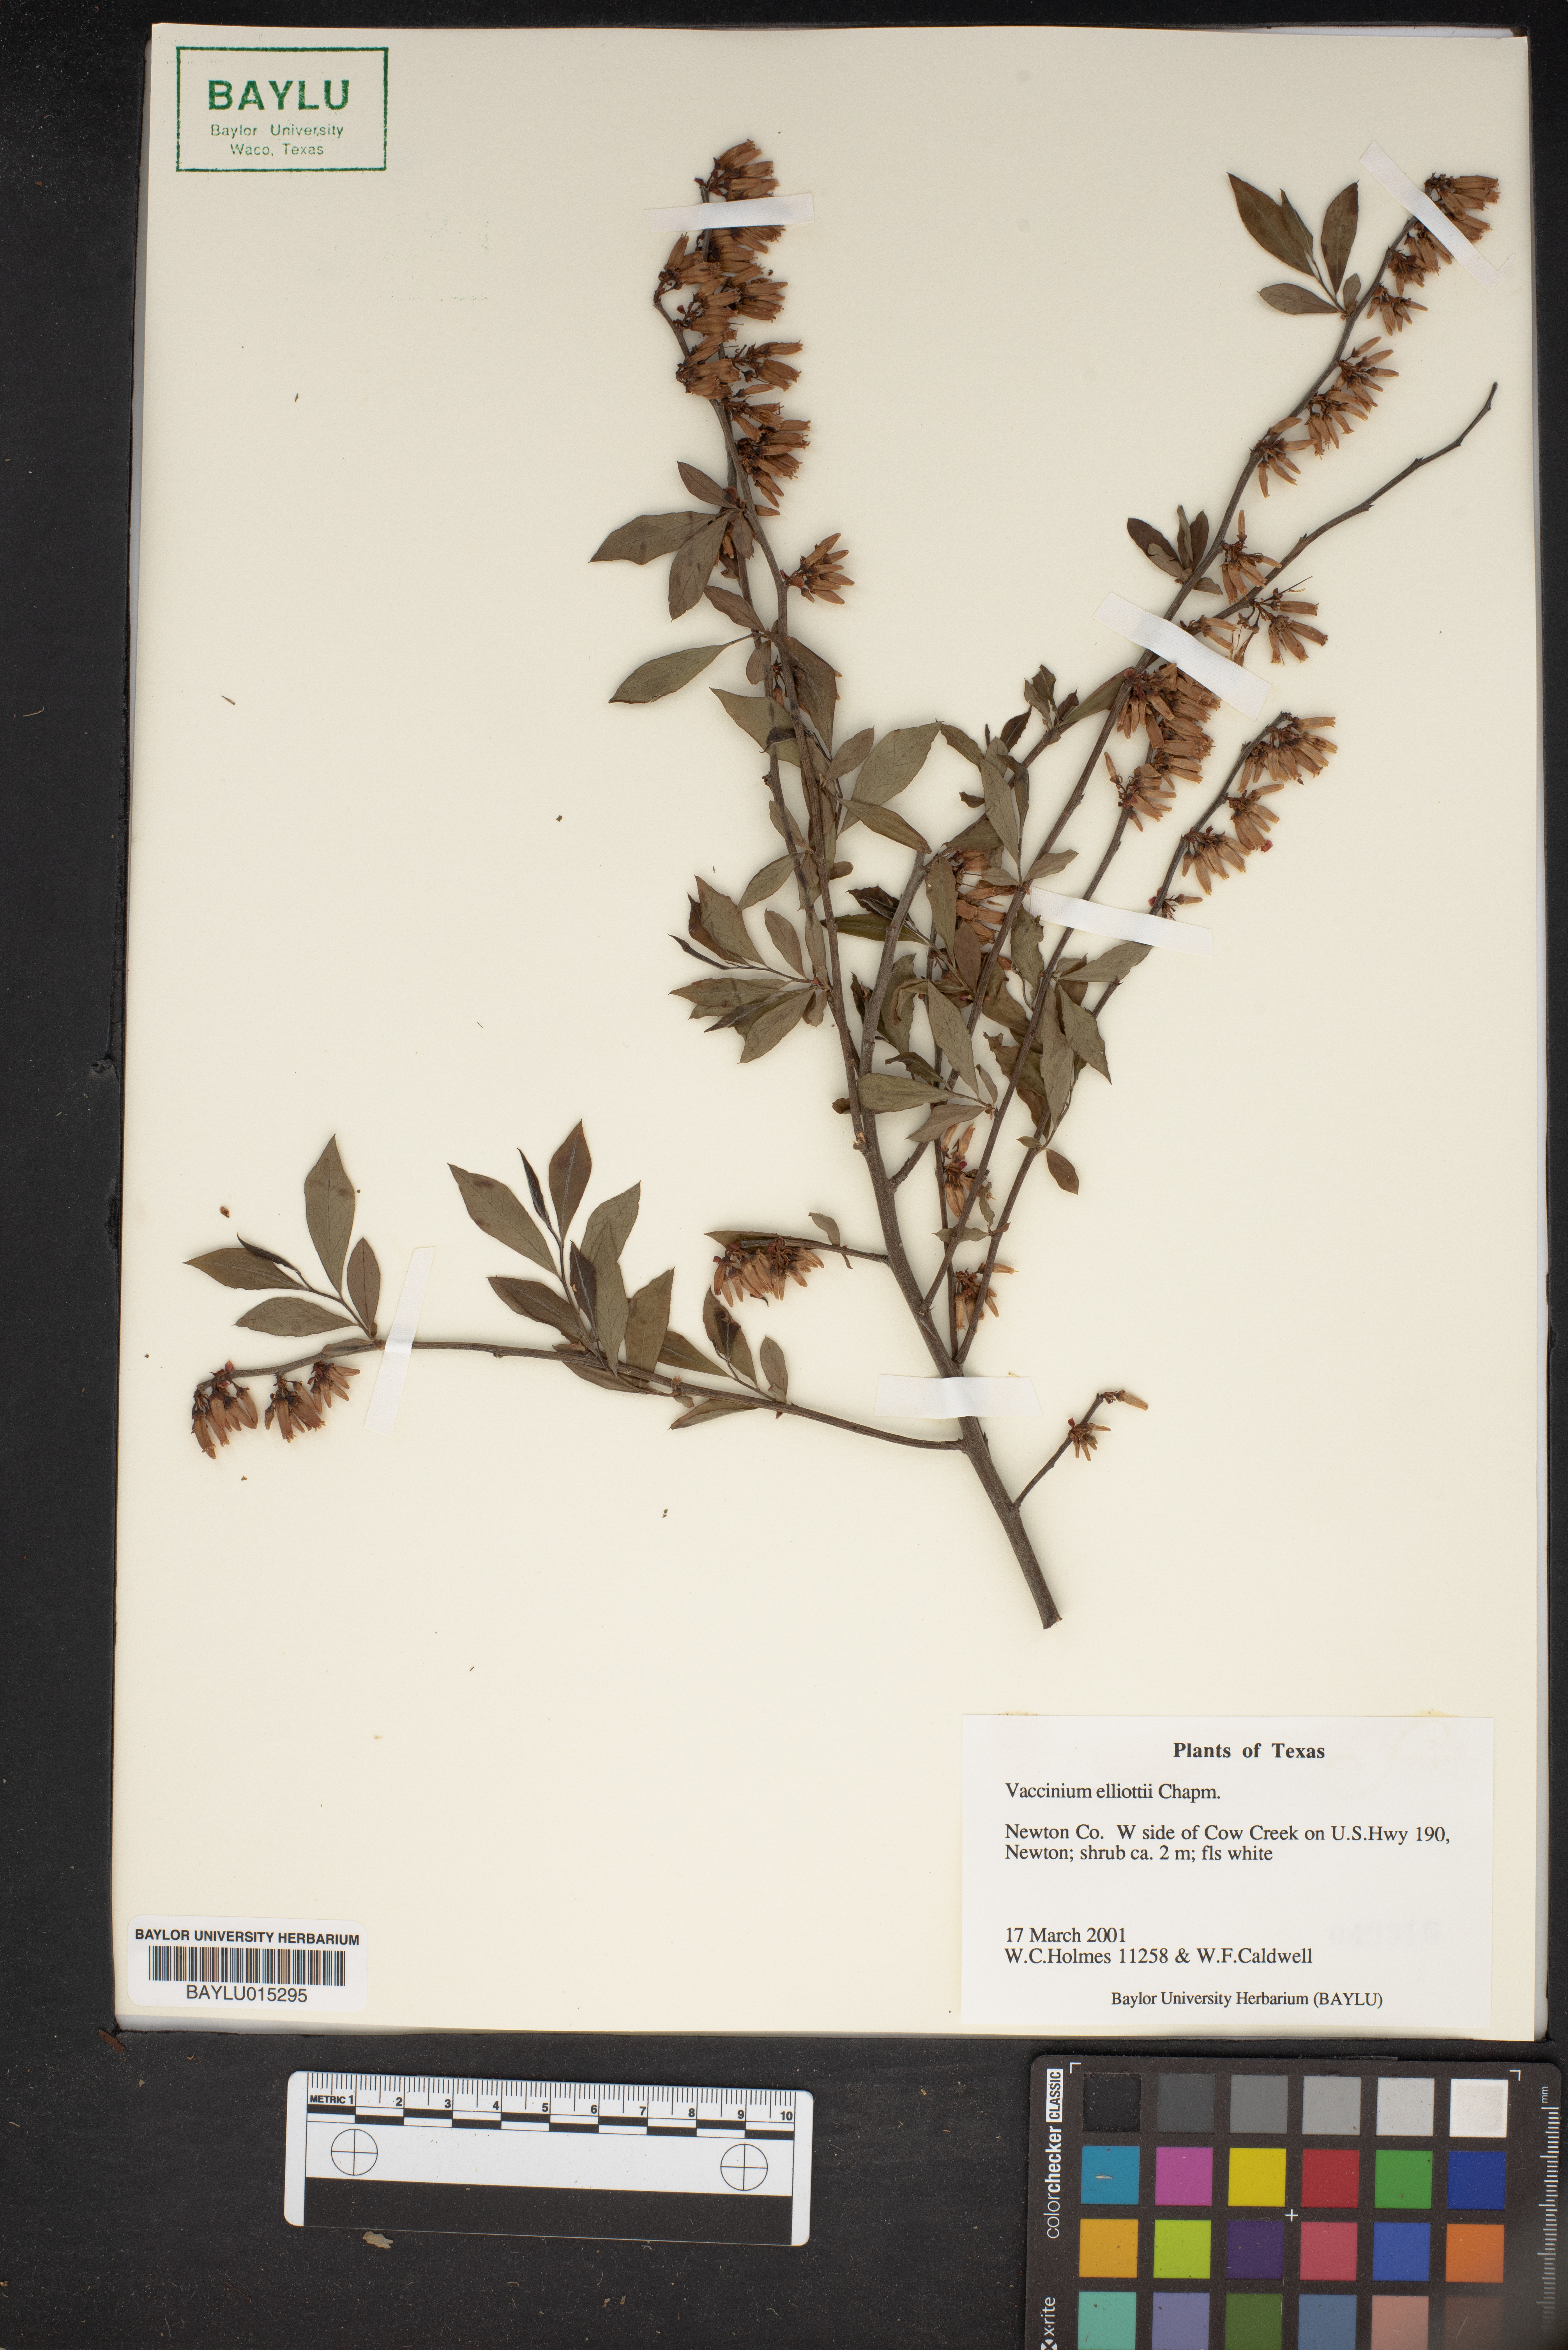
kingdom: Plantae
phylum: Tracheophyta
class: Magnoliopsida
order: Ericales
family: Ericaceae
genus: Vaccinium
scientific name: Vaccinium corymbosum
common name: Blueberry
